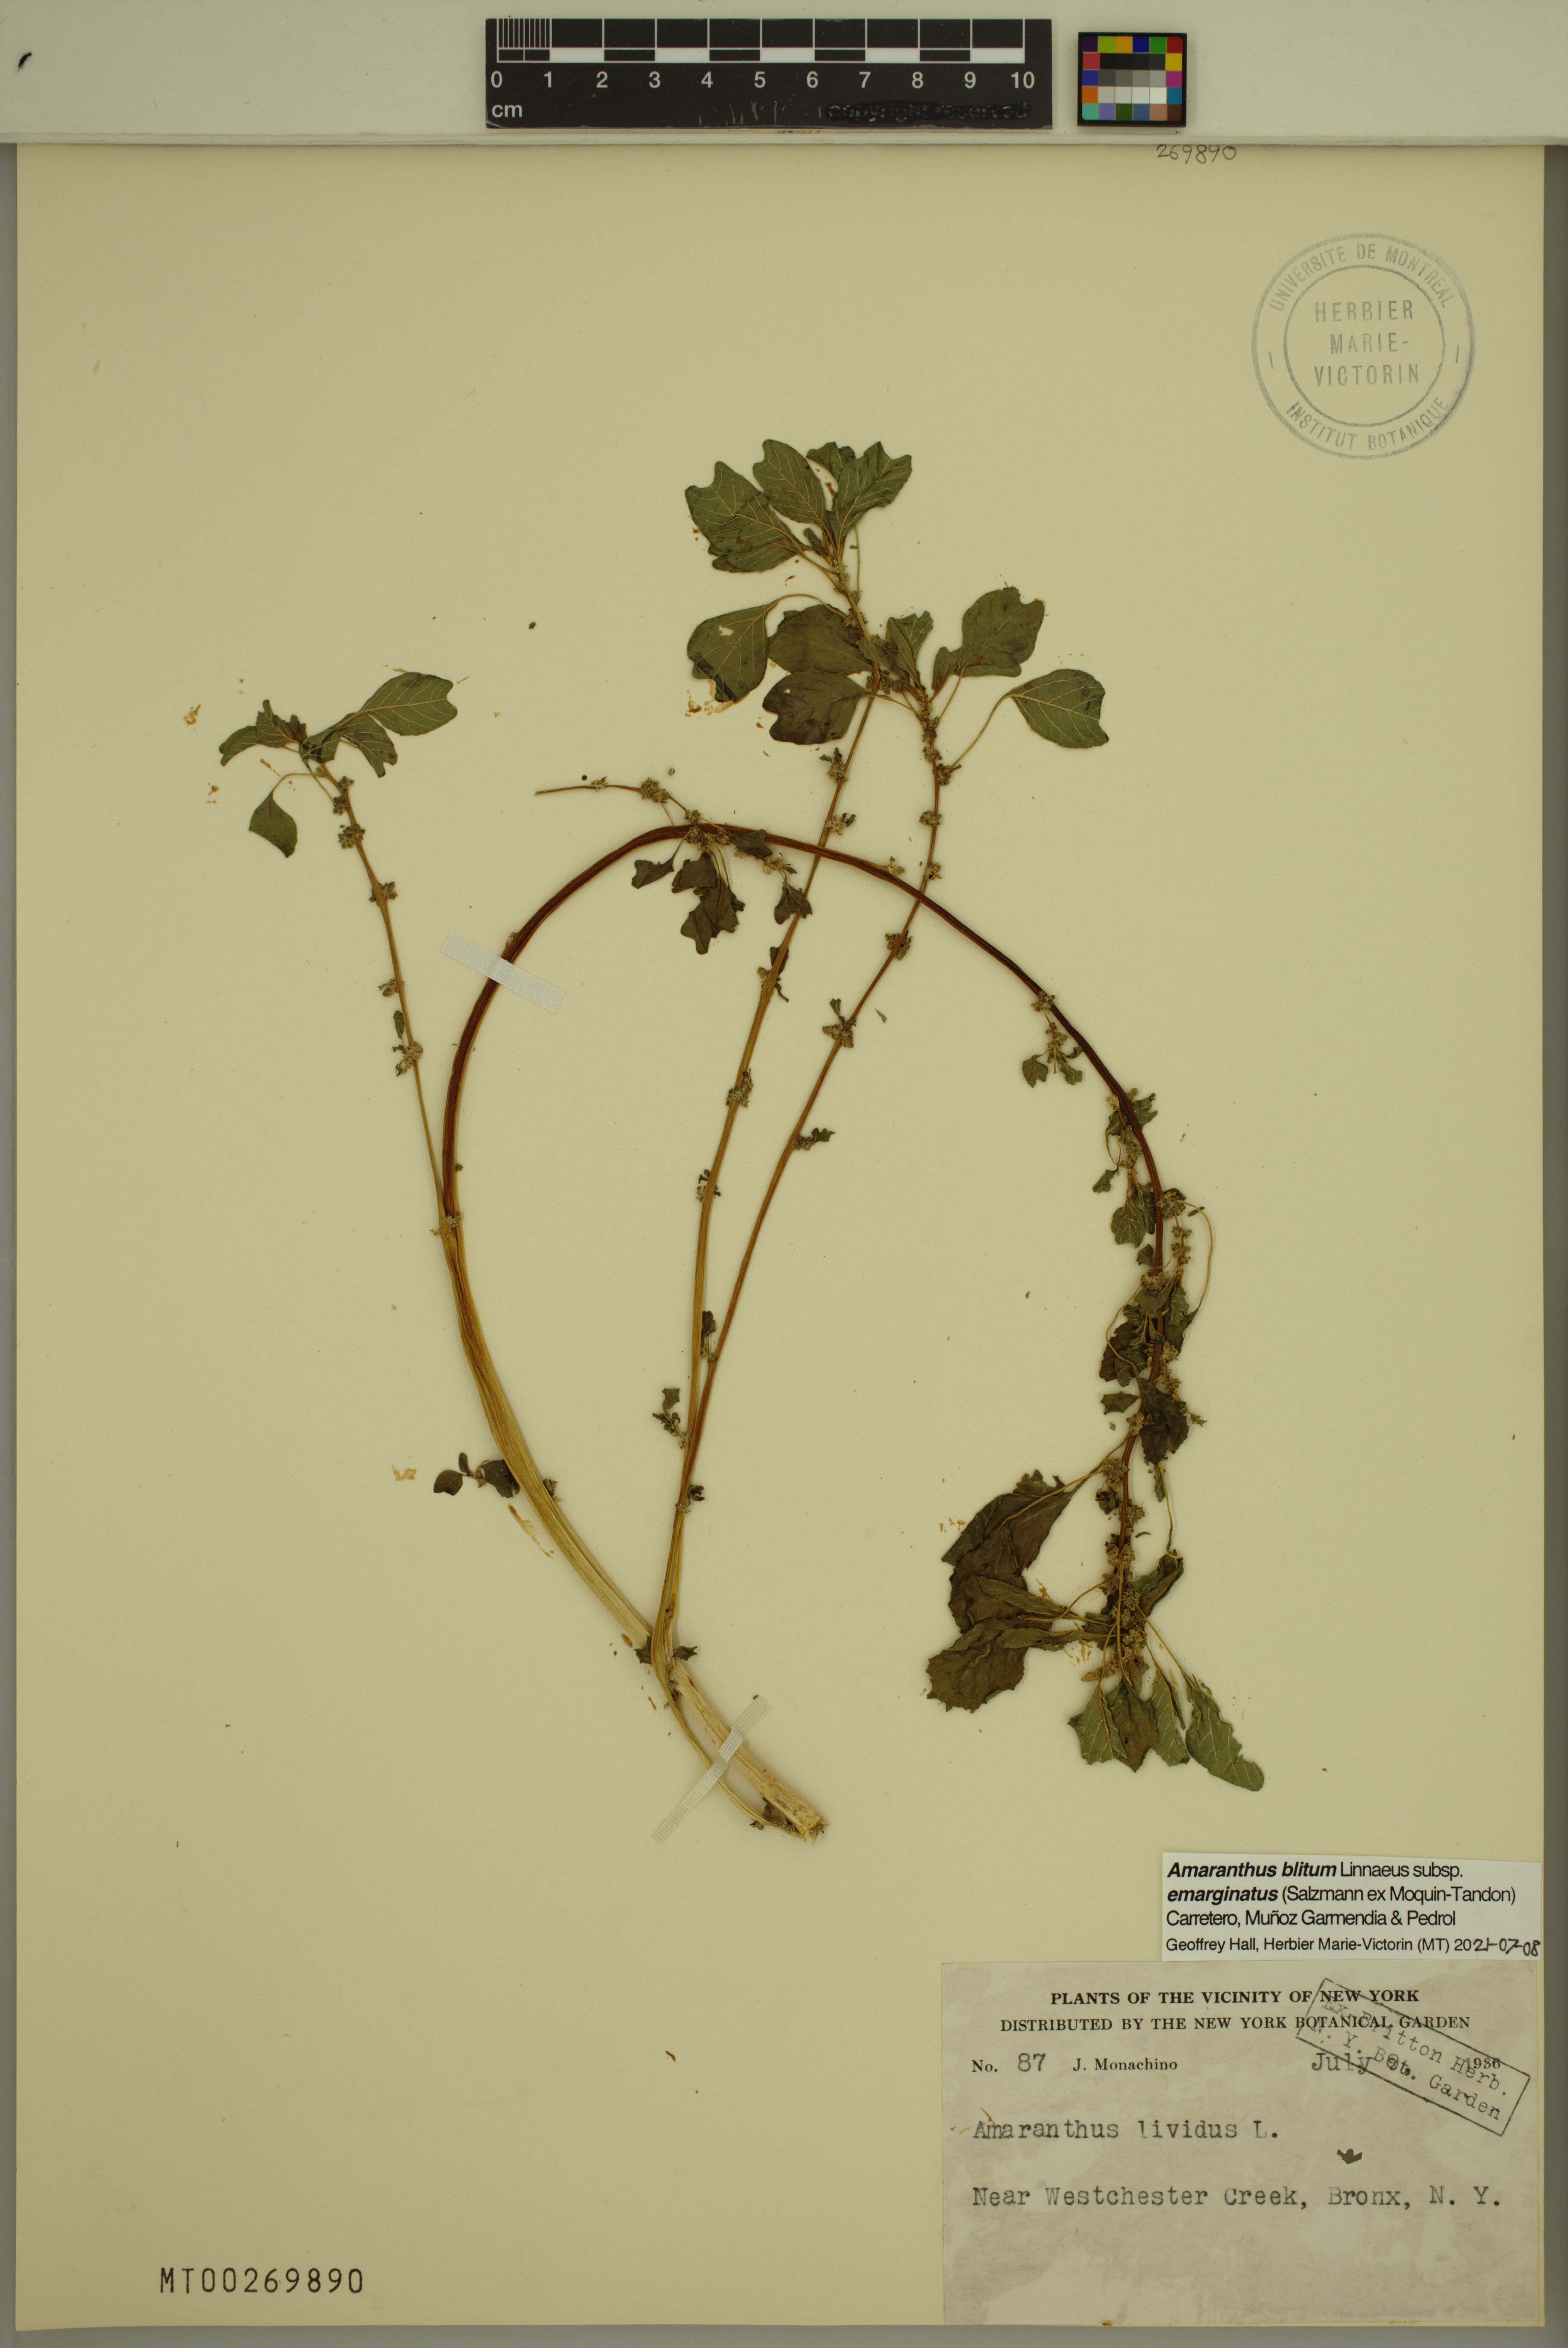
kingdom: Plantae
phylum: Tracheophyta
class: Magnoliopsida
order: Caryophyllales
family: Amaranthaceae
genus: Amaranthus
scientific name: Amaranthus emarginatus
